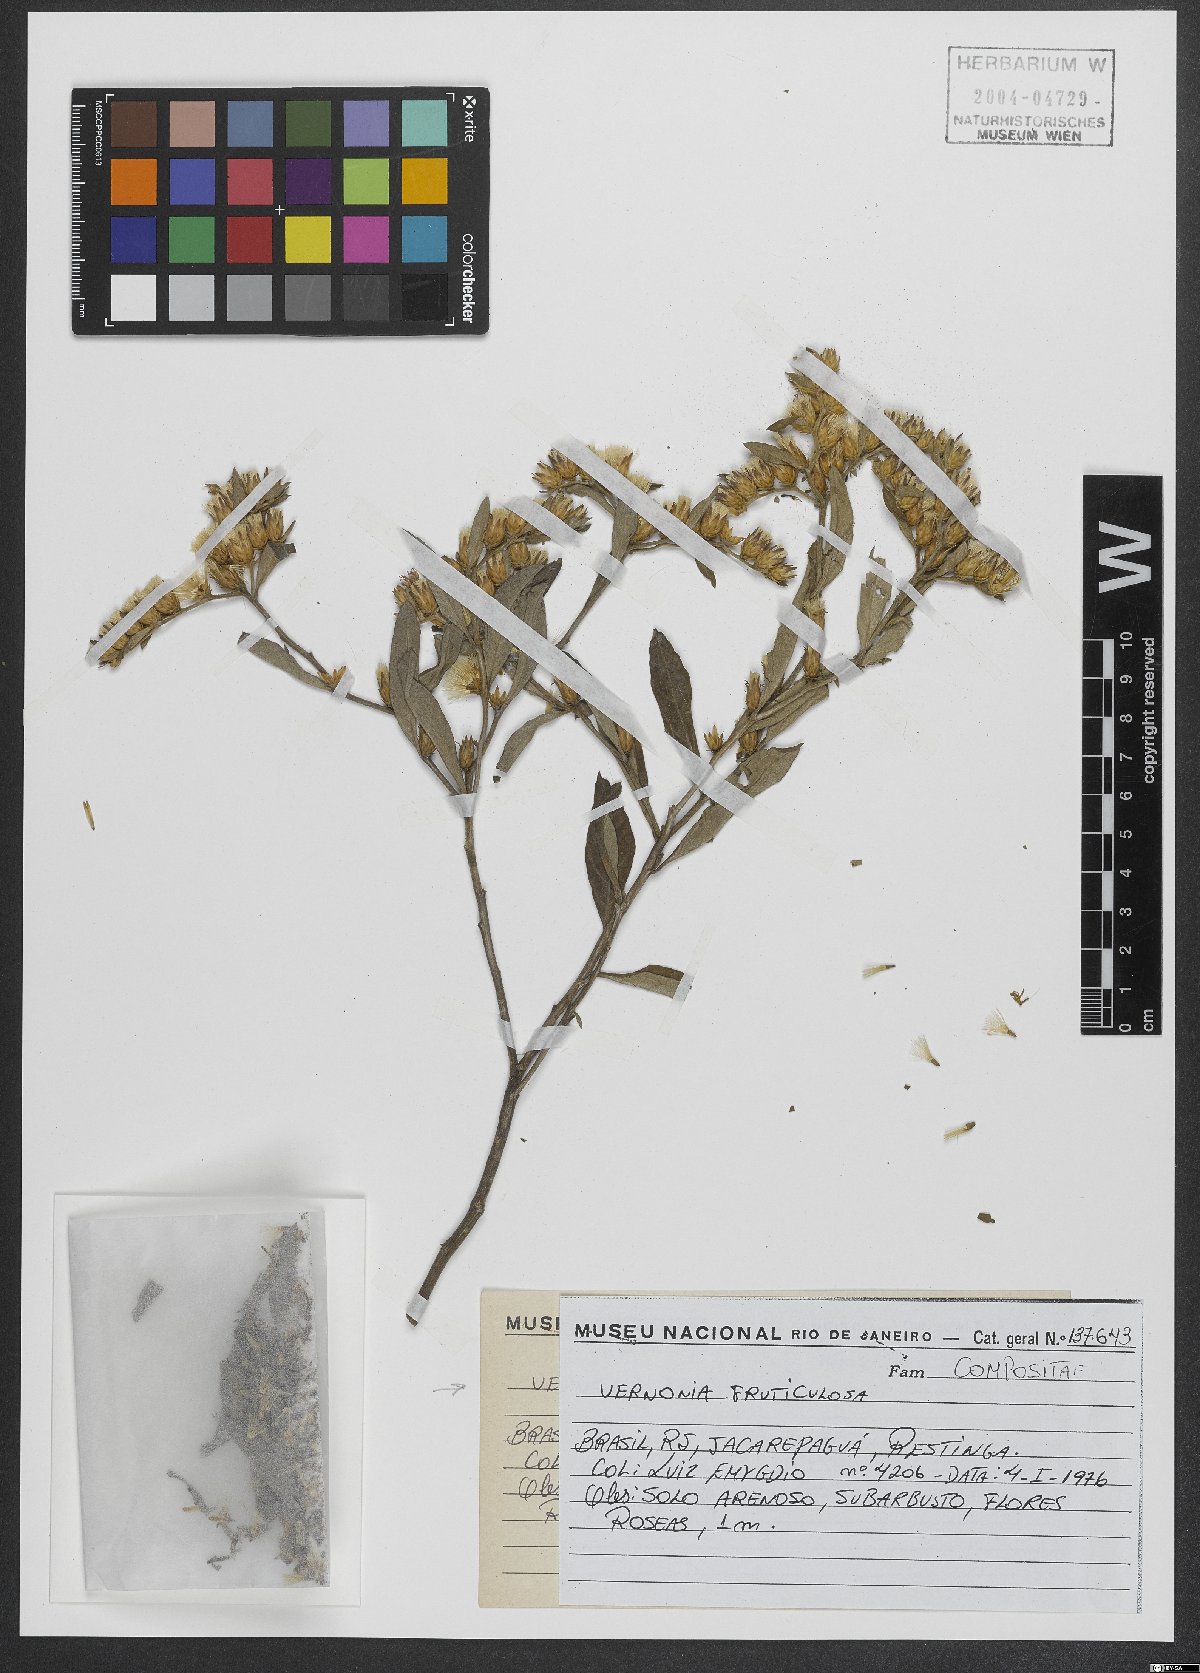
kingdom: Plantae
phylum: Tracheophyta
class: Magnoliopsida
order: Asterales
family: Asteraceae
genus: Lepidaploa
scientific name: Lepidaploa rufogrisea
